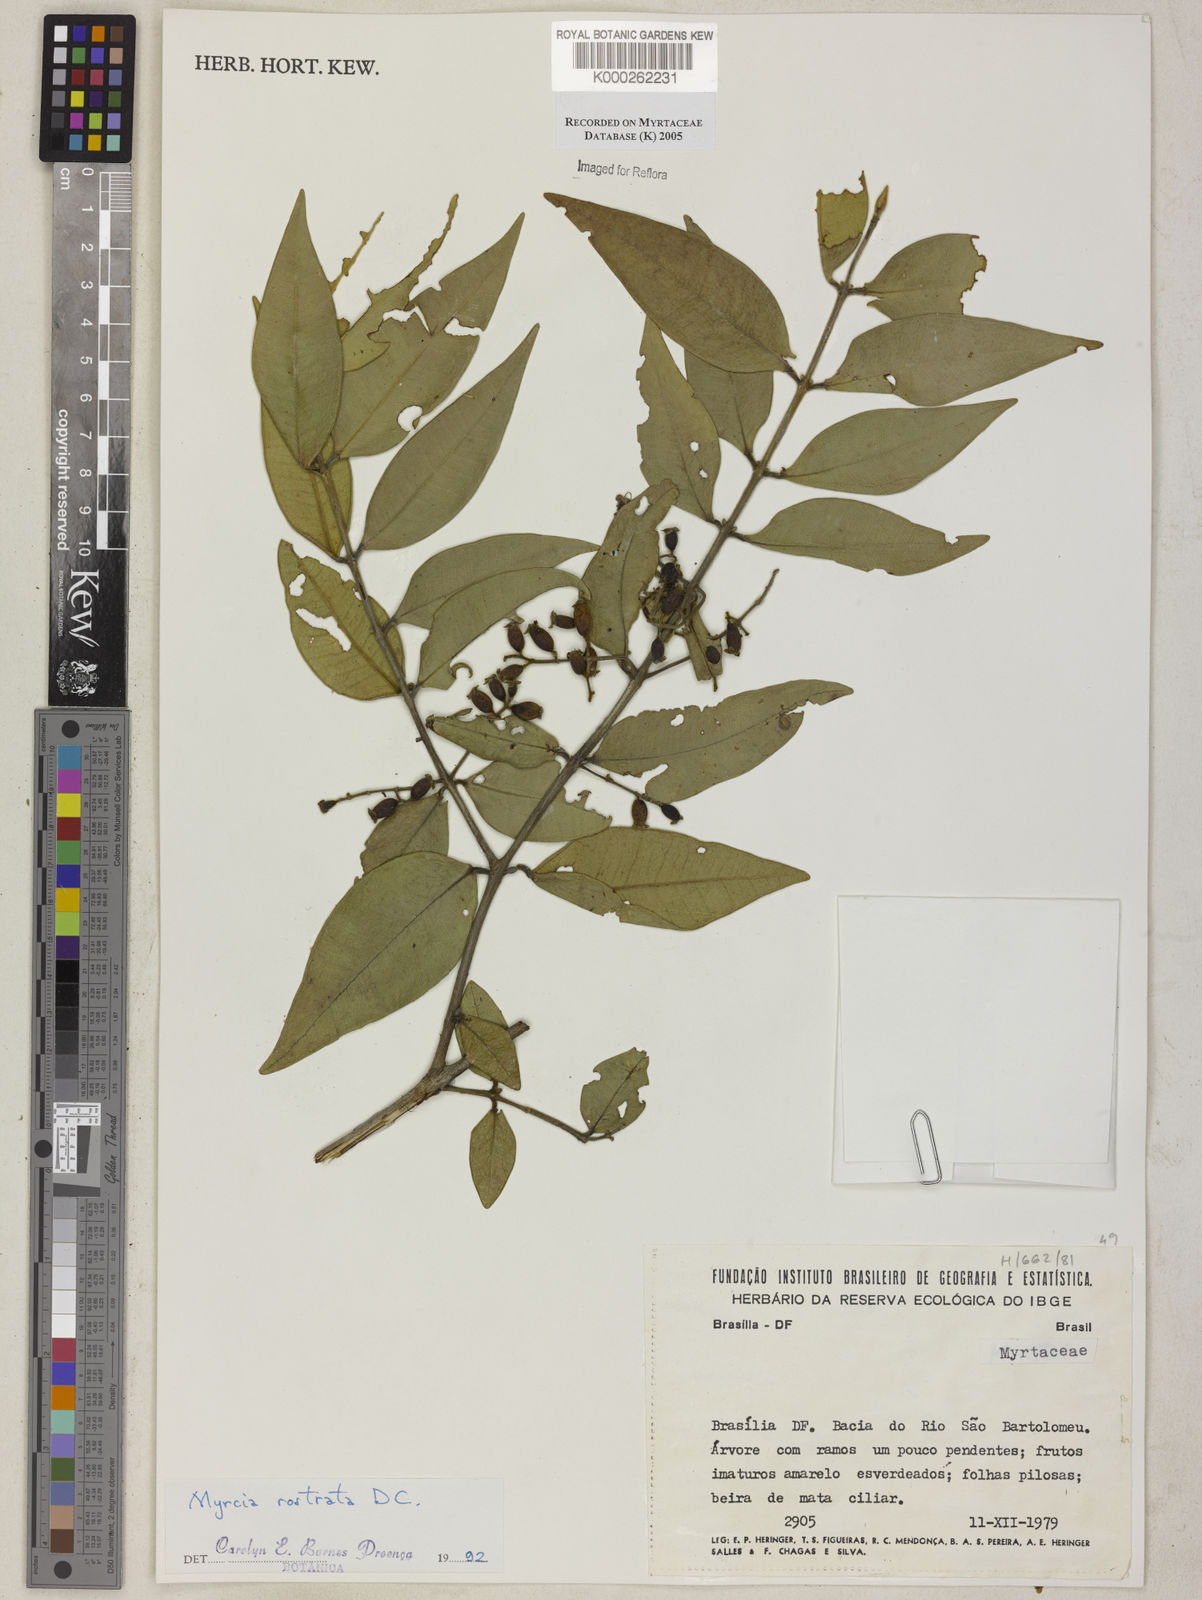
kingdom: Plantae
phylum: Tracheophyta
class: Magnoliopsida
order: Myrtales
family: Myrtaceae
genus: Myrcia
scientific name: Myrcia splendens
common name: Surinam cherry
